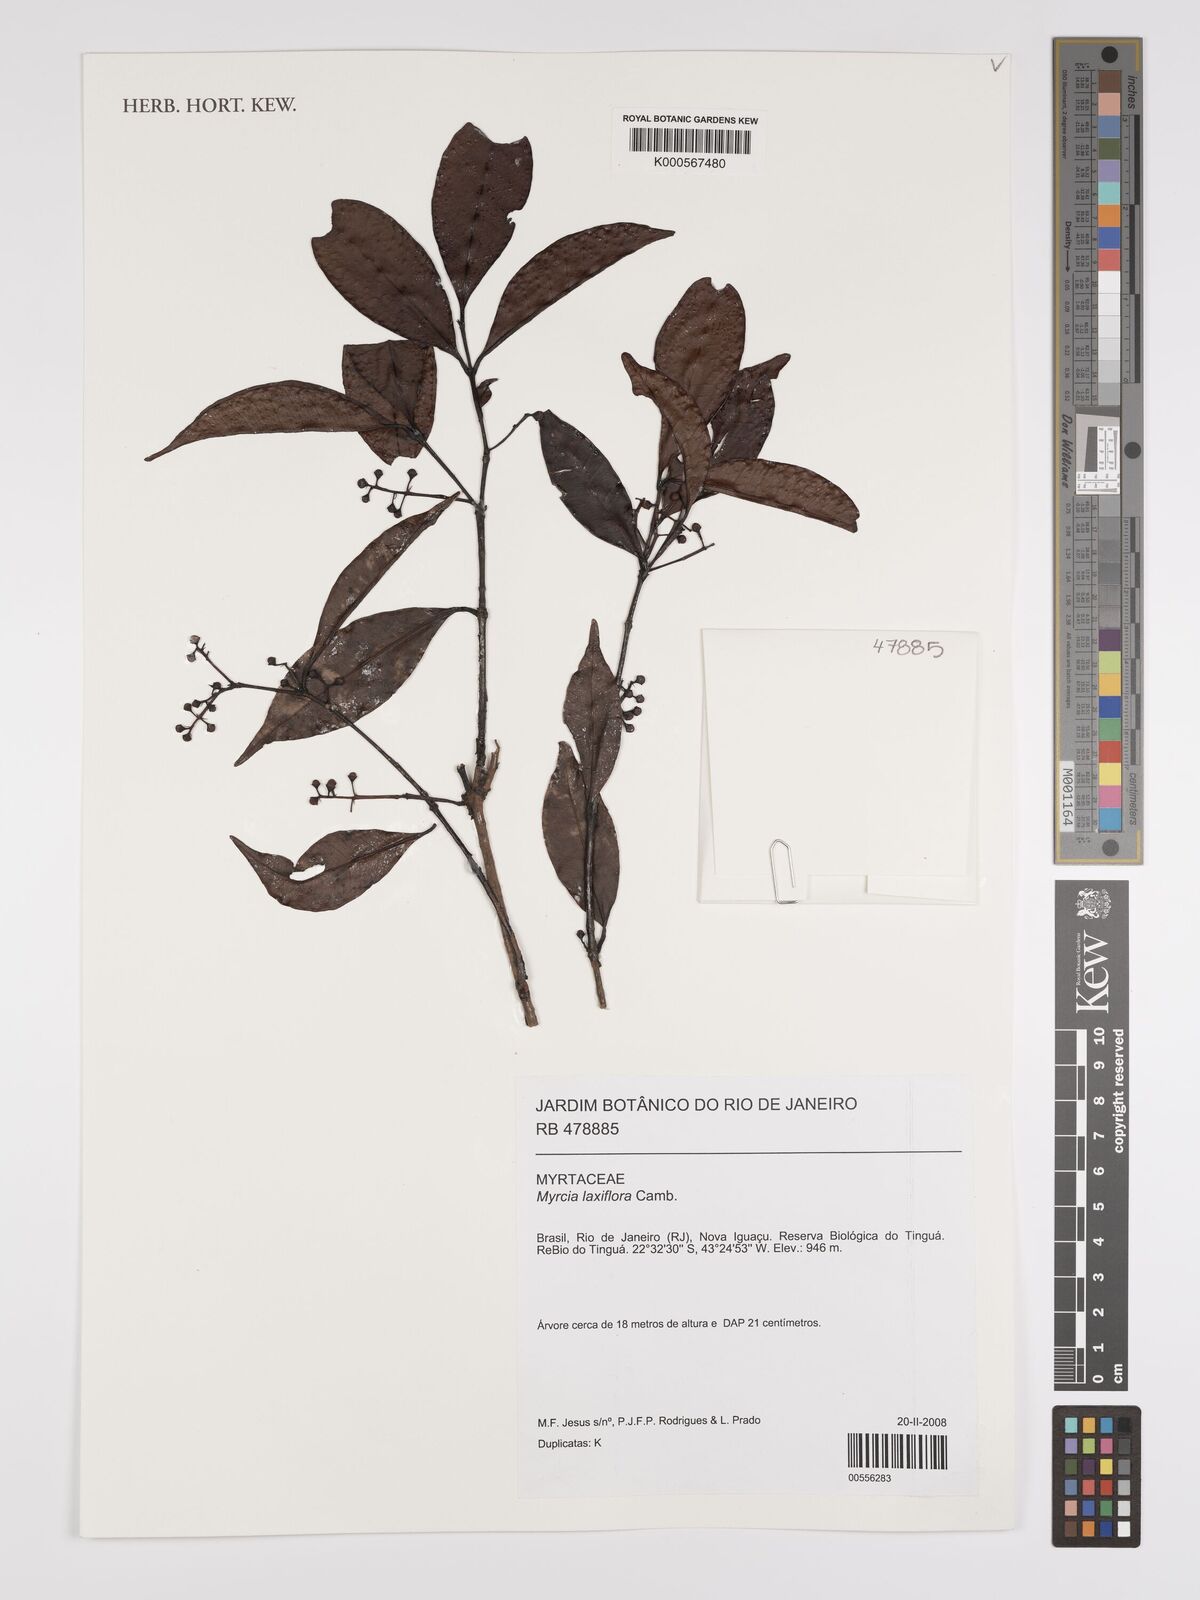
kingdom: Plantae
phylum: Tracheophyta
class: Magnoliopsida
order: Myrtales
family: Myrtaceae
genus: Myrcia
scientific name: Myrcia laxiflora
